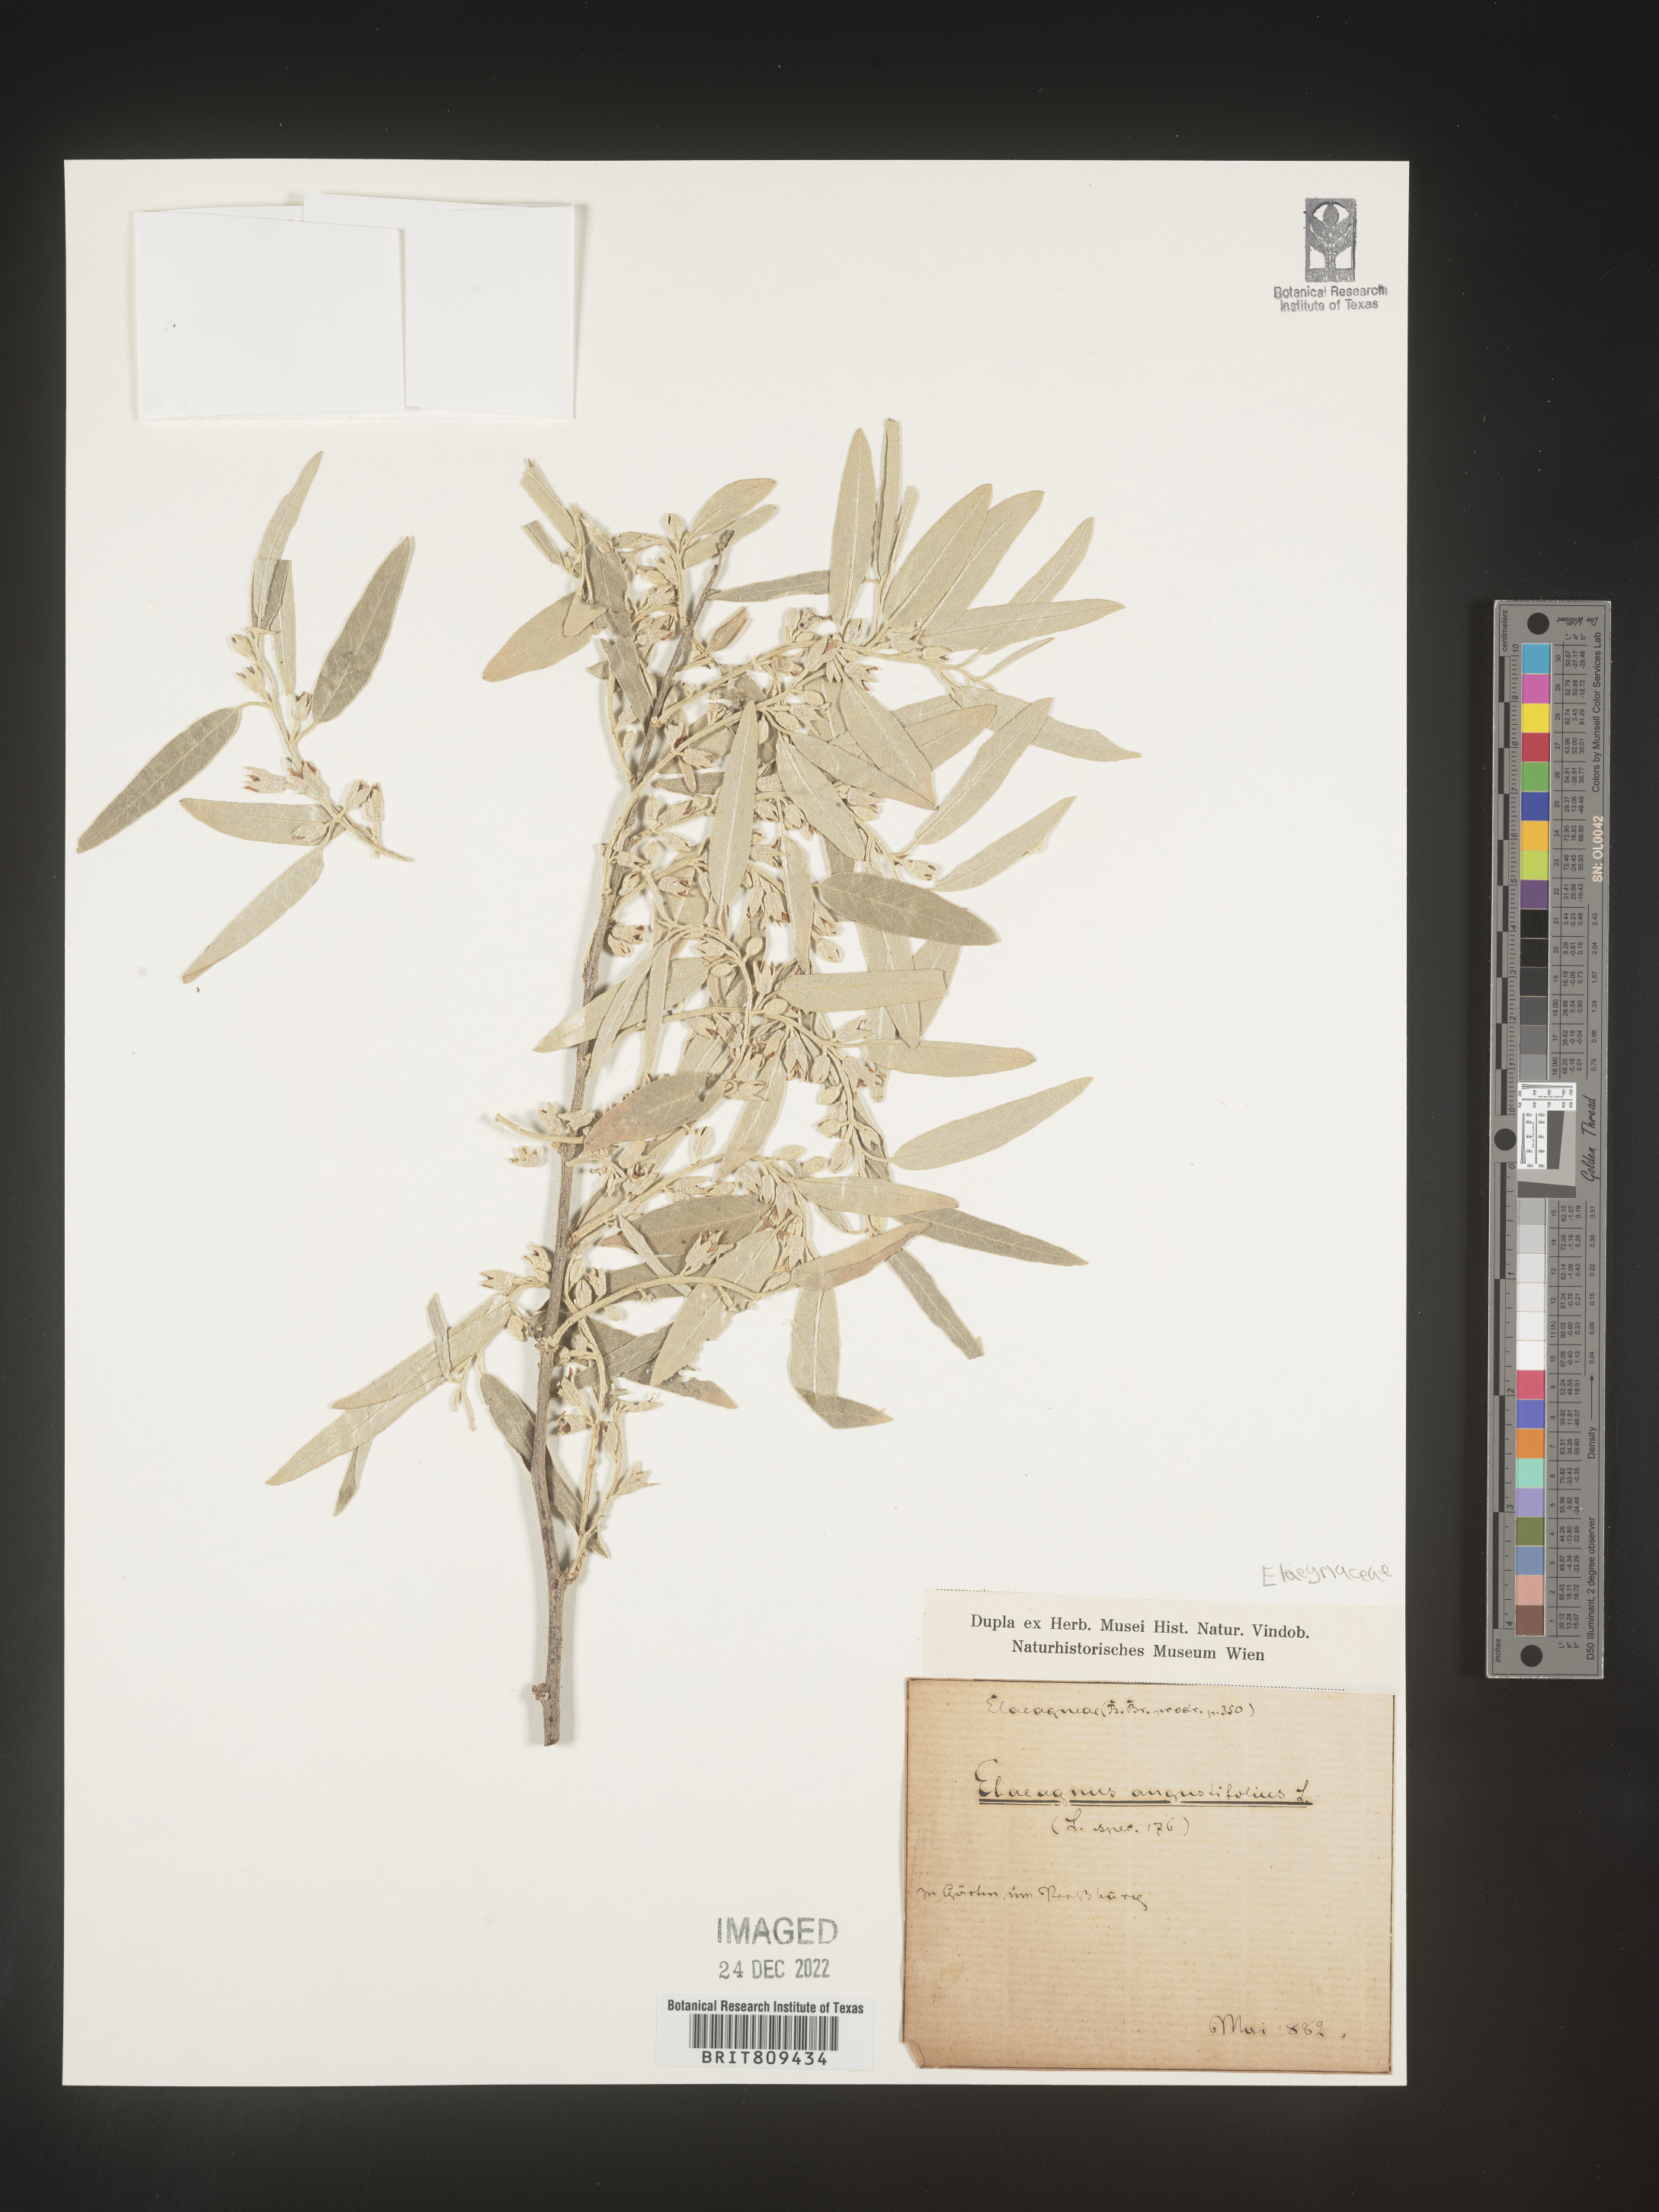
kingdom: Plantae
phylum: Tracheophyta
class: Magnoliopsida
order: Rosales
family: Elaeagnaceae
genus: Elaeagnus
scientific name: Elaeagnus
